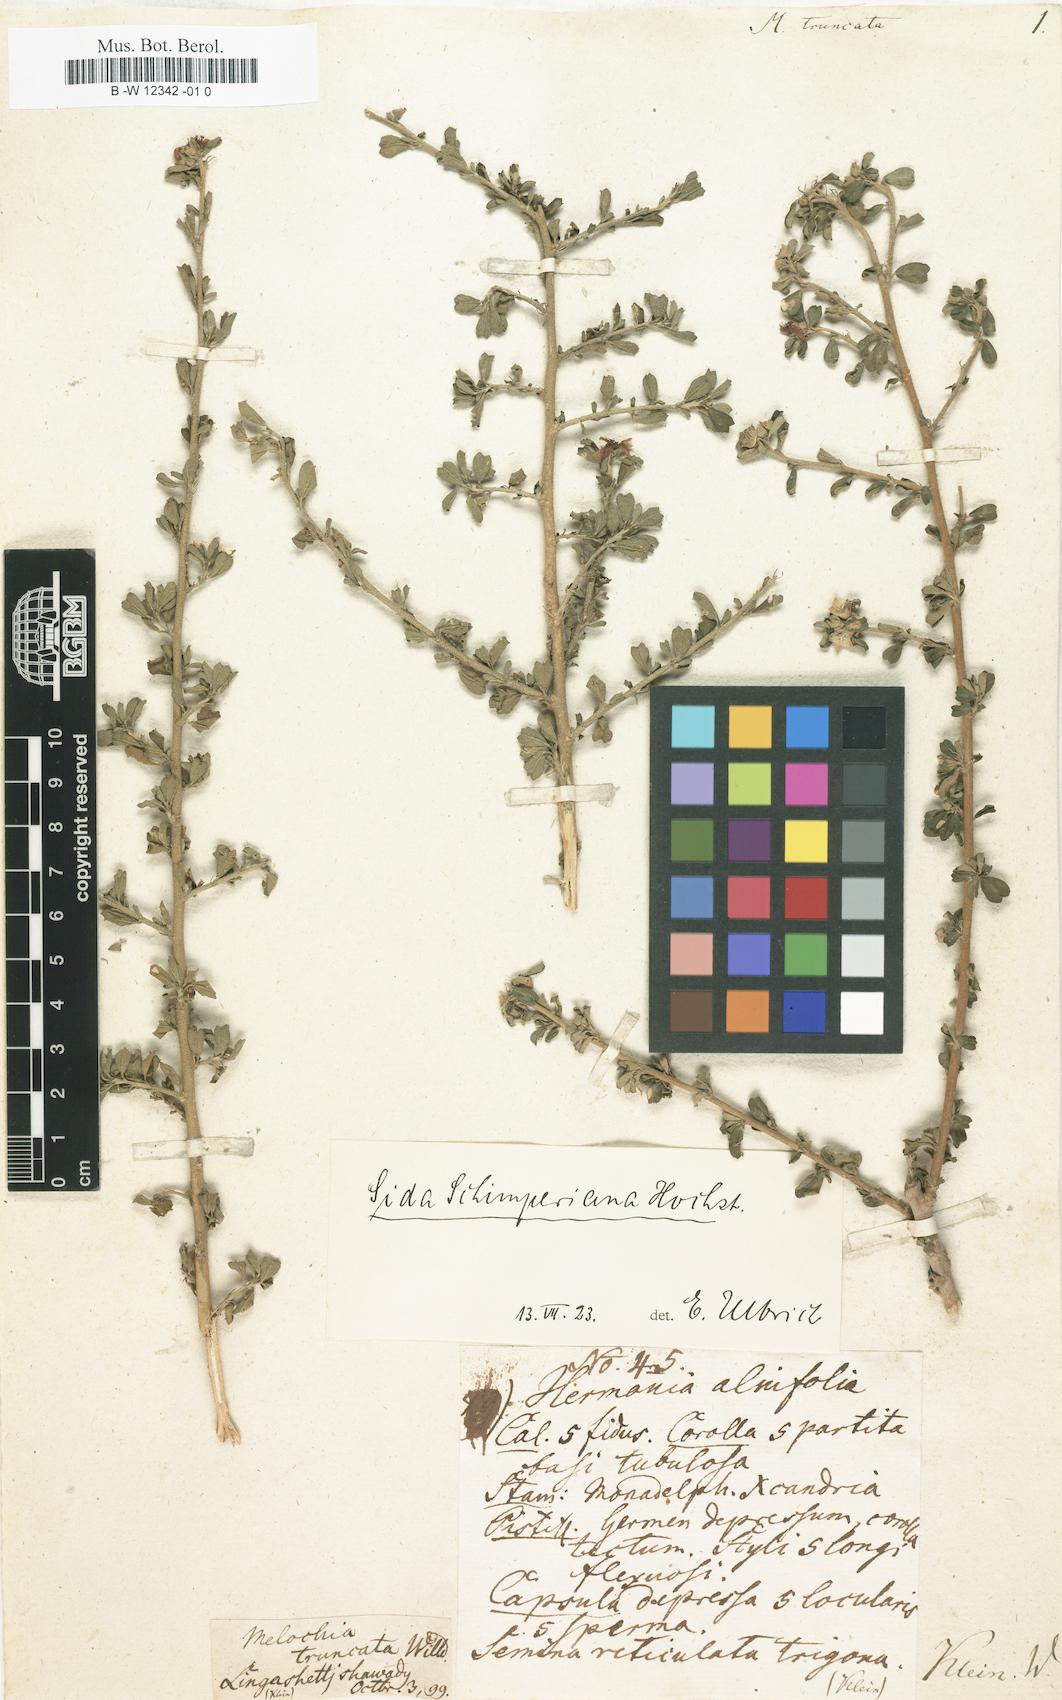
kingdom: Plantae
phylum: Tracheophyta
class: Magnoliopsida
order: Malvales
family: Malvaceae
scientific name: Malvaceae
